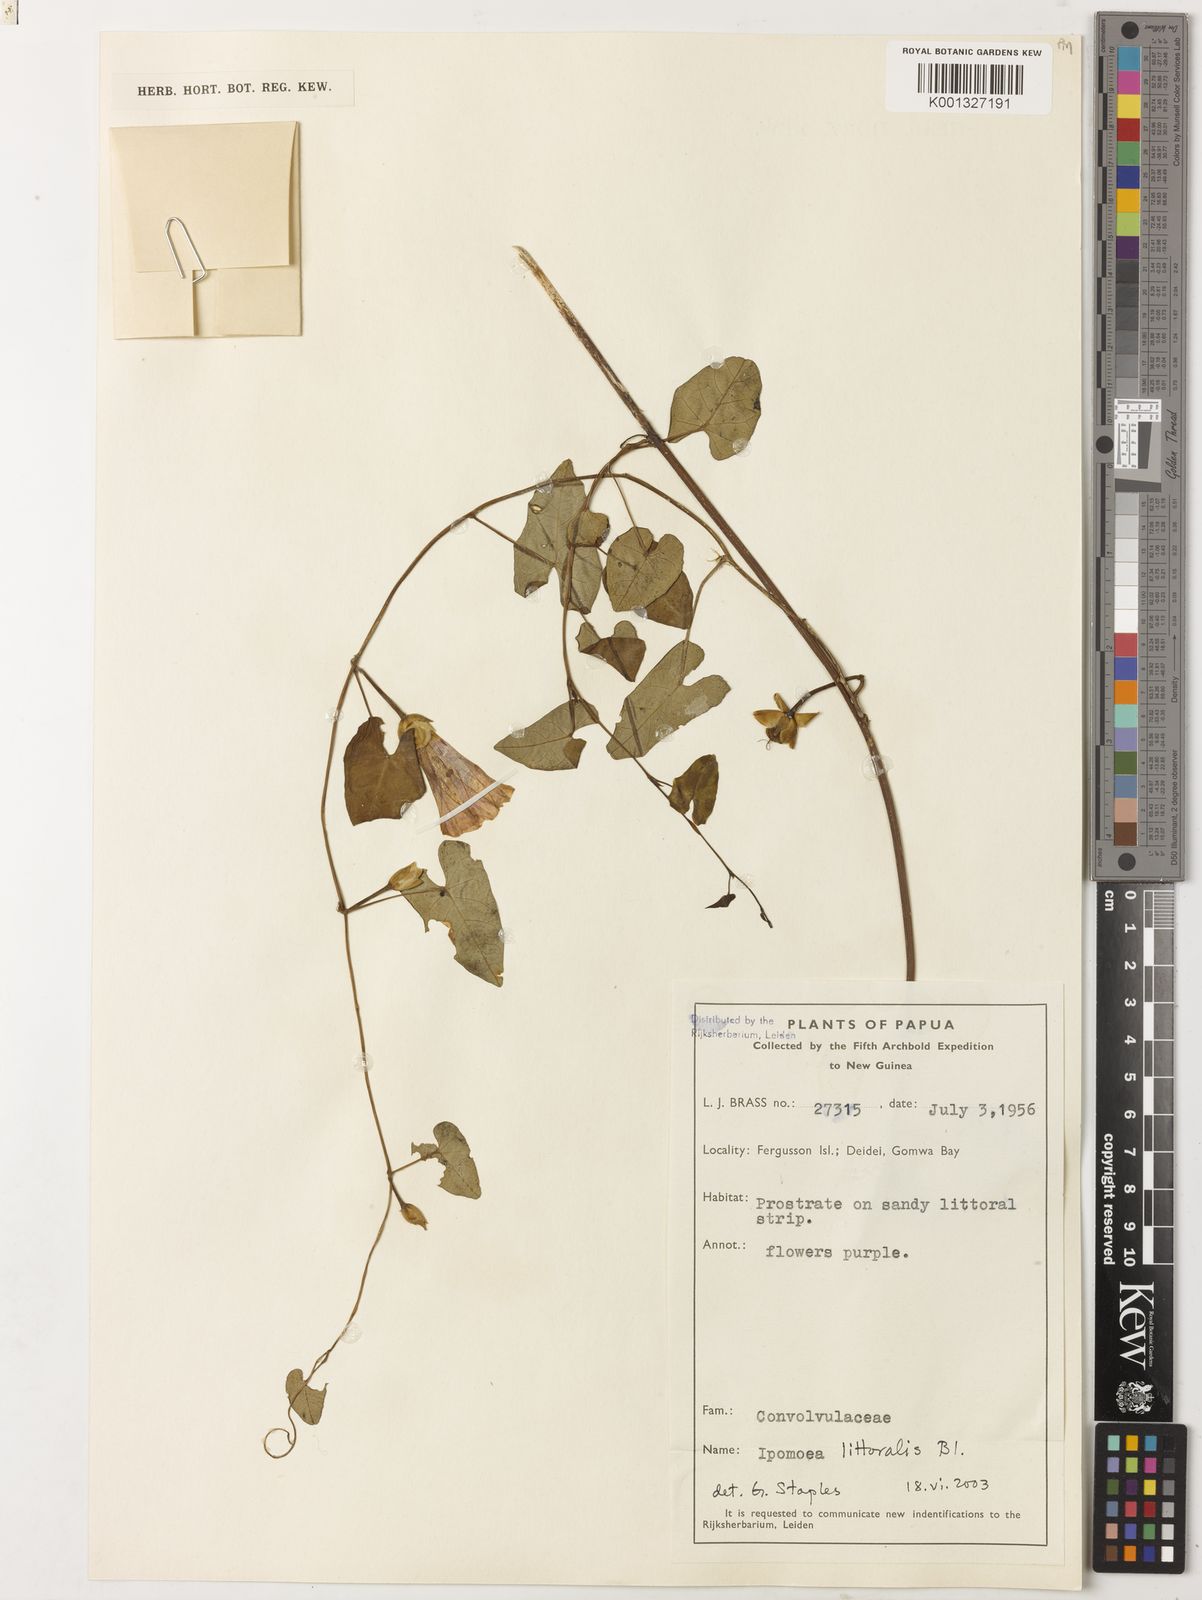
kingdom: Plantae
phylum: Tracheophyta
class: Magnoliopsida
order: Solanales
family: Convolvulaceae
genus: Ipomoea
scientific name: Ipomoea littoralis
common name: Coastal morning glory
